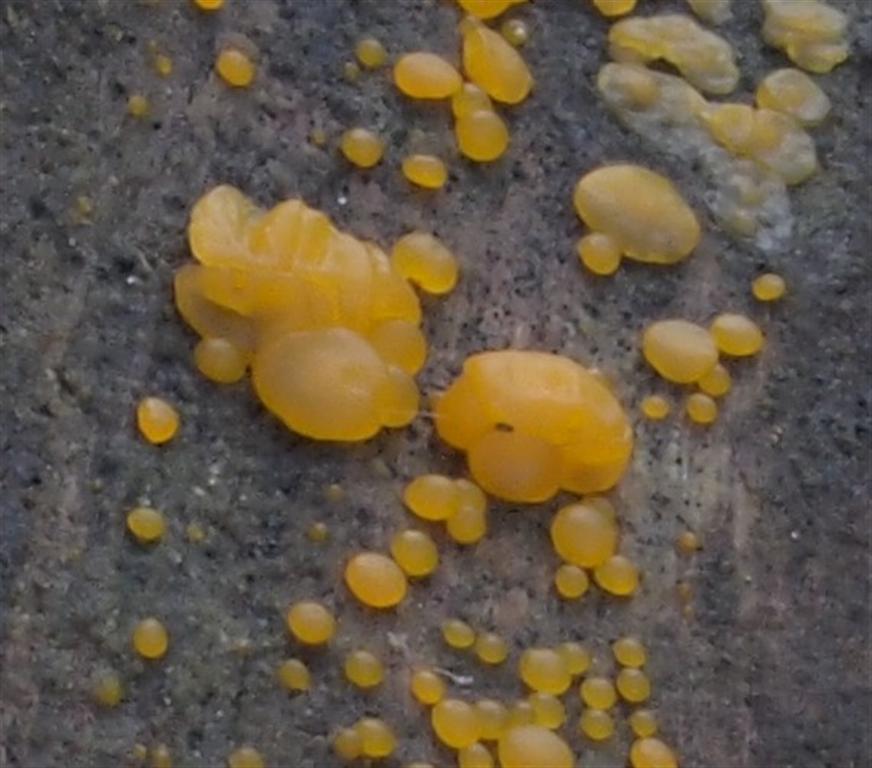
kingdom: Fungi
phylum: Basidiomycota
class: Dacrymycetes
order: Dacrymycetales
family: Dacrymycetaceae
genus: Dacrymyces
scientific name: Dacrymyces lacrymalis
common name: rynket tåresvamp
